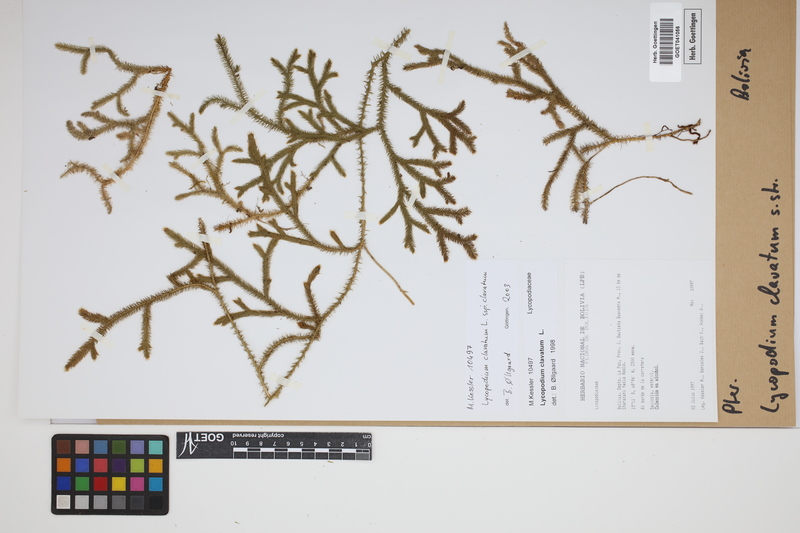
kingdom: Plantae
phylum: Tracheophyta
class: Lycopodiopsida
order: Lycopodiales
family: Lycopodiaceae
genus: Lycopodium
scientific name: Lycopodium clavatum
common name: Stag's-horn clubmoss
